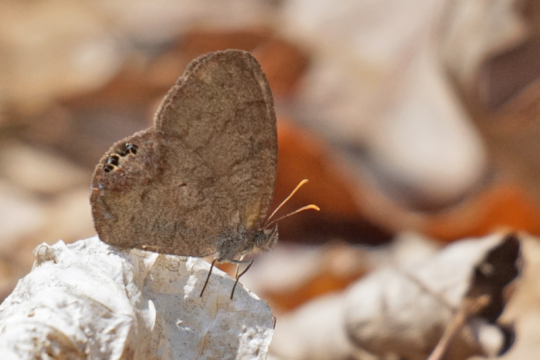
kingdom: Animalia
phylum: Arthropoda
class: Insecta
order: Lepidoptera
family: Nymphalidae
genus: Euptychia
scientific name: Euptychia cornelius
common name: Gemmed Satyr
